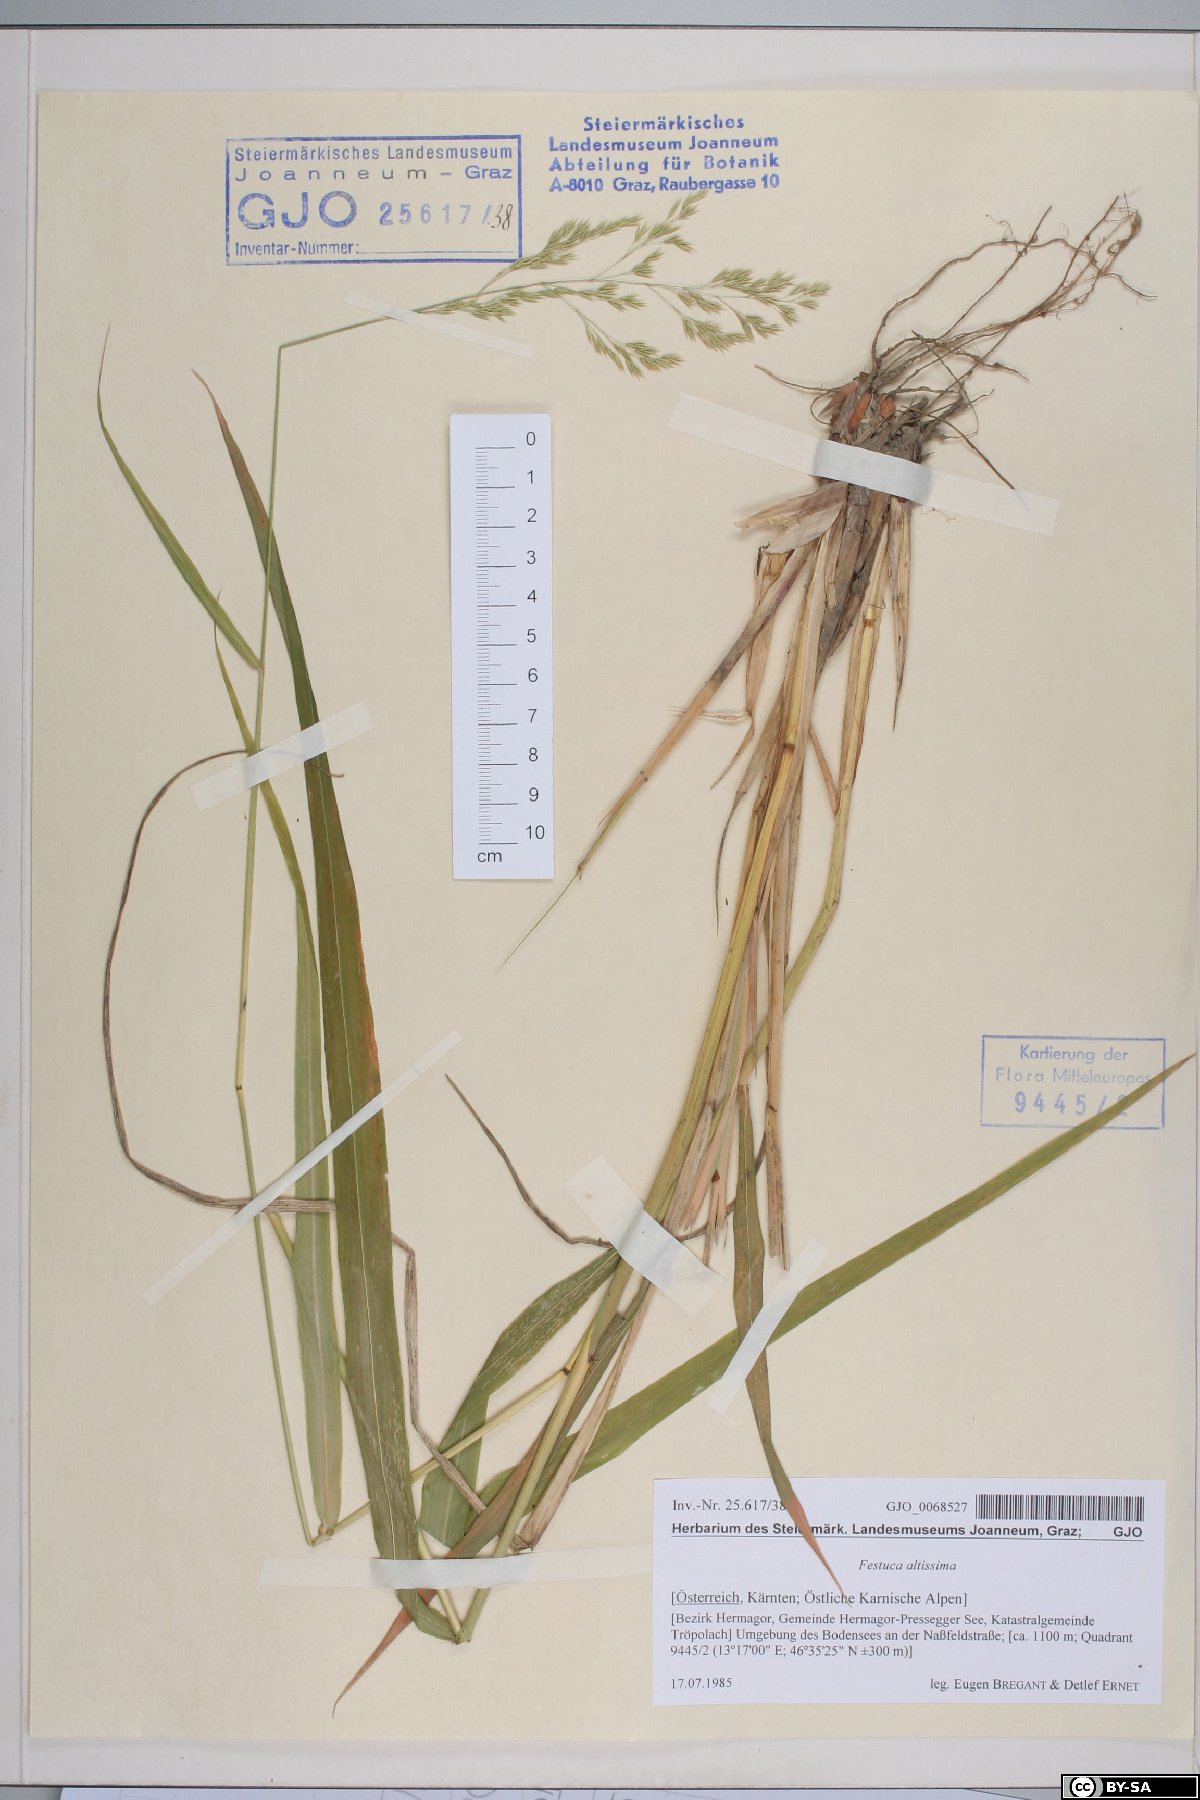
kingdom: Plantae
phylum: Tracheophyta
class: Liliopsida
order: Poales
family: Poaceae
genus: Festuca
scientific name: Festuca altissima
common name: Wood fescue
